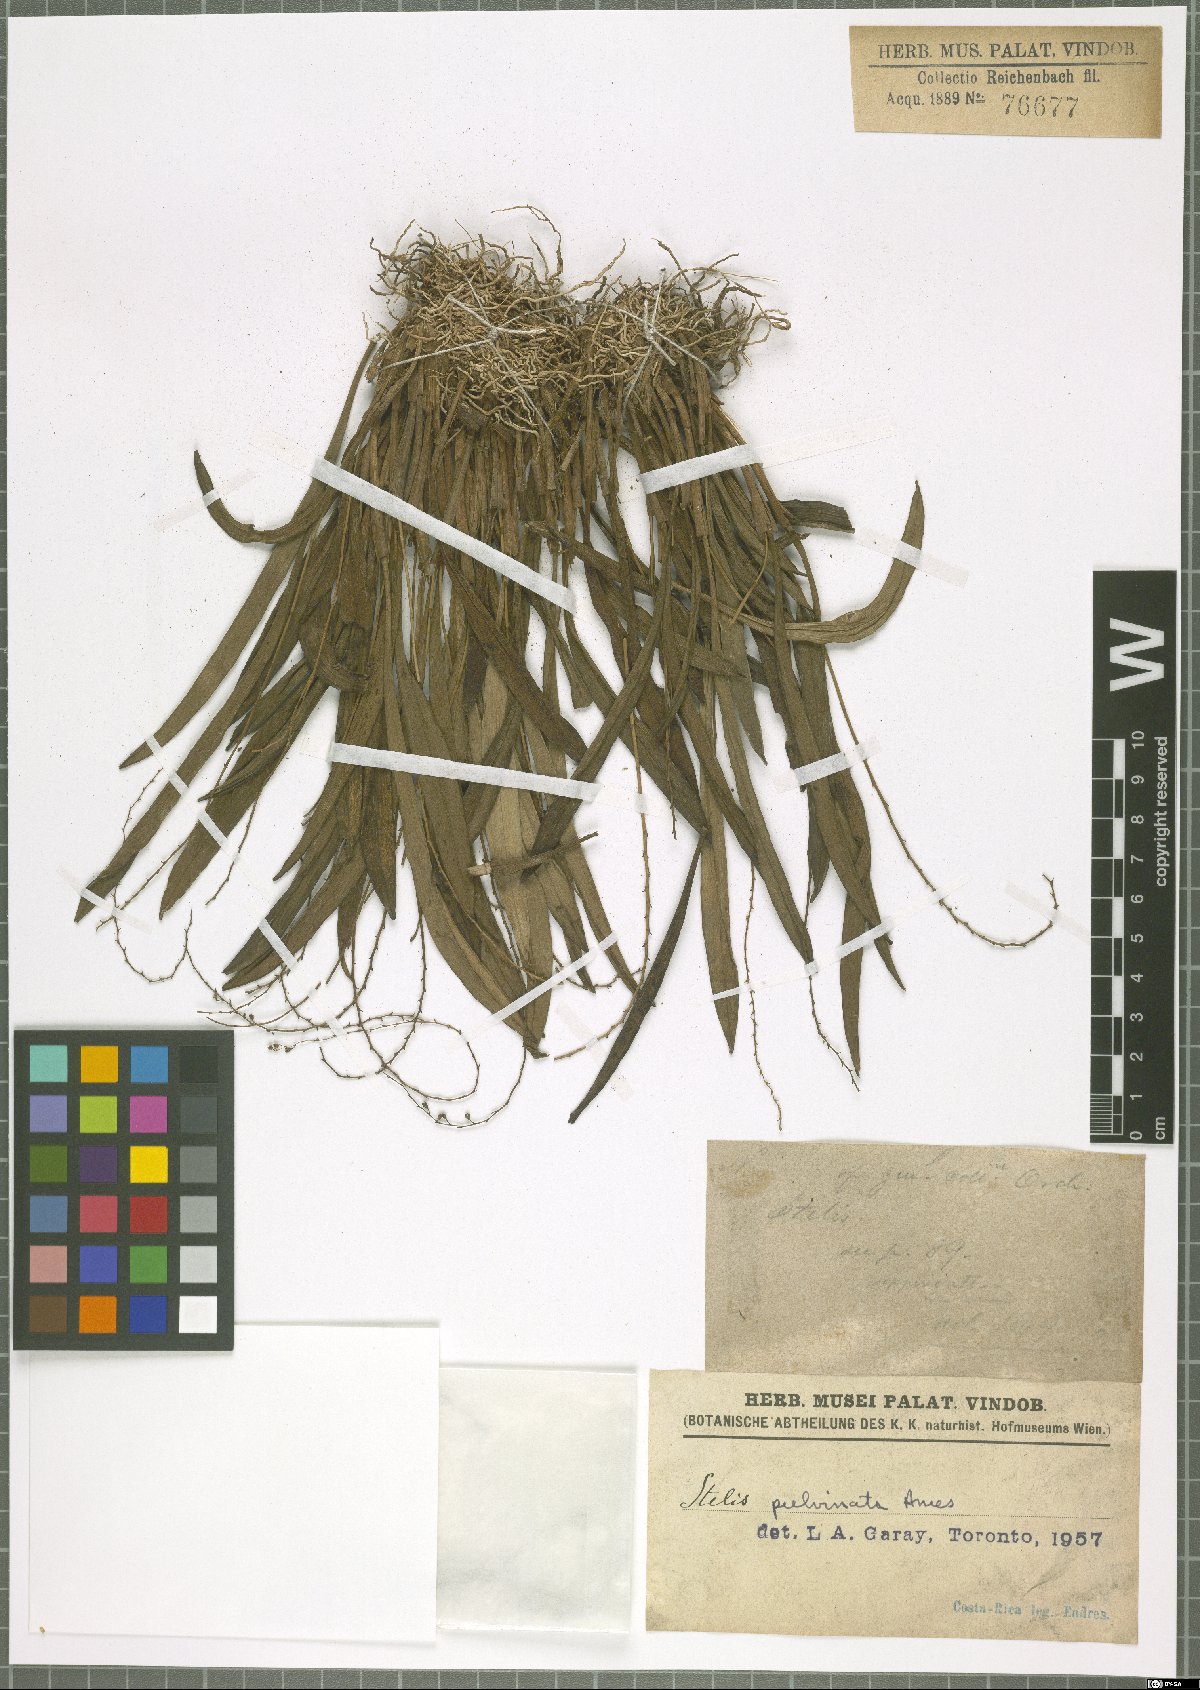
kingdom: Plantae
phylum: Tracheophyta
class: Liliopsida
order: Asparagales
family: Orchidaceae
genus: Stelis
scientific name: Stelis
